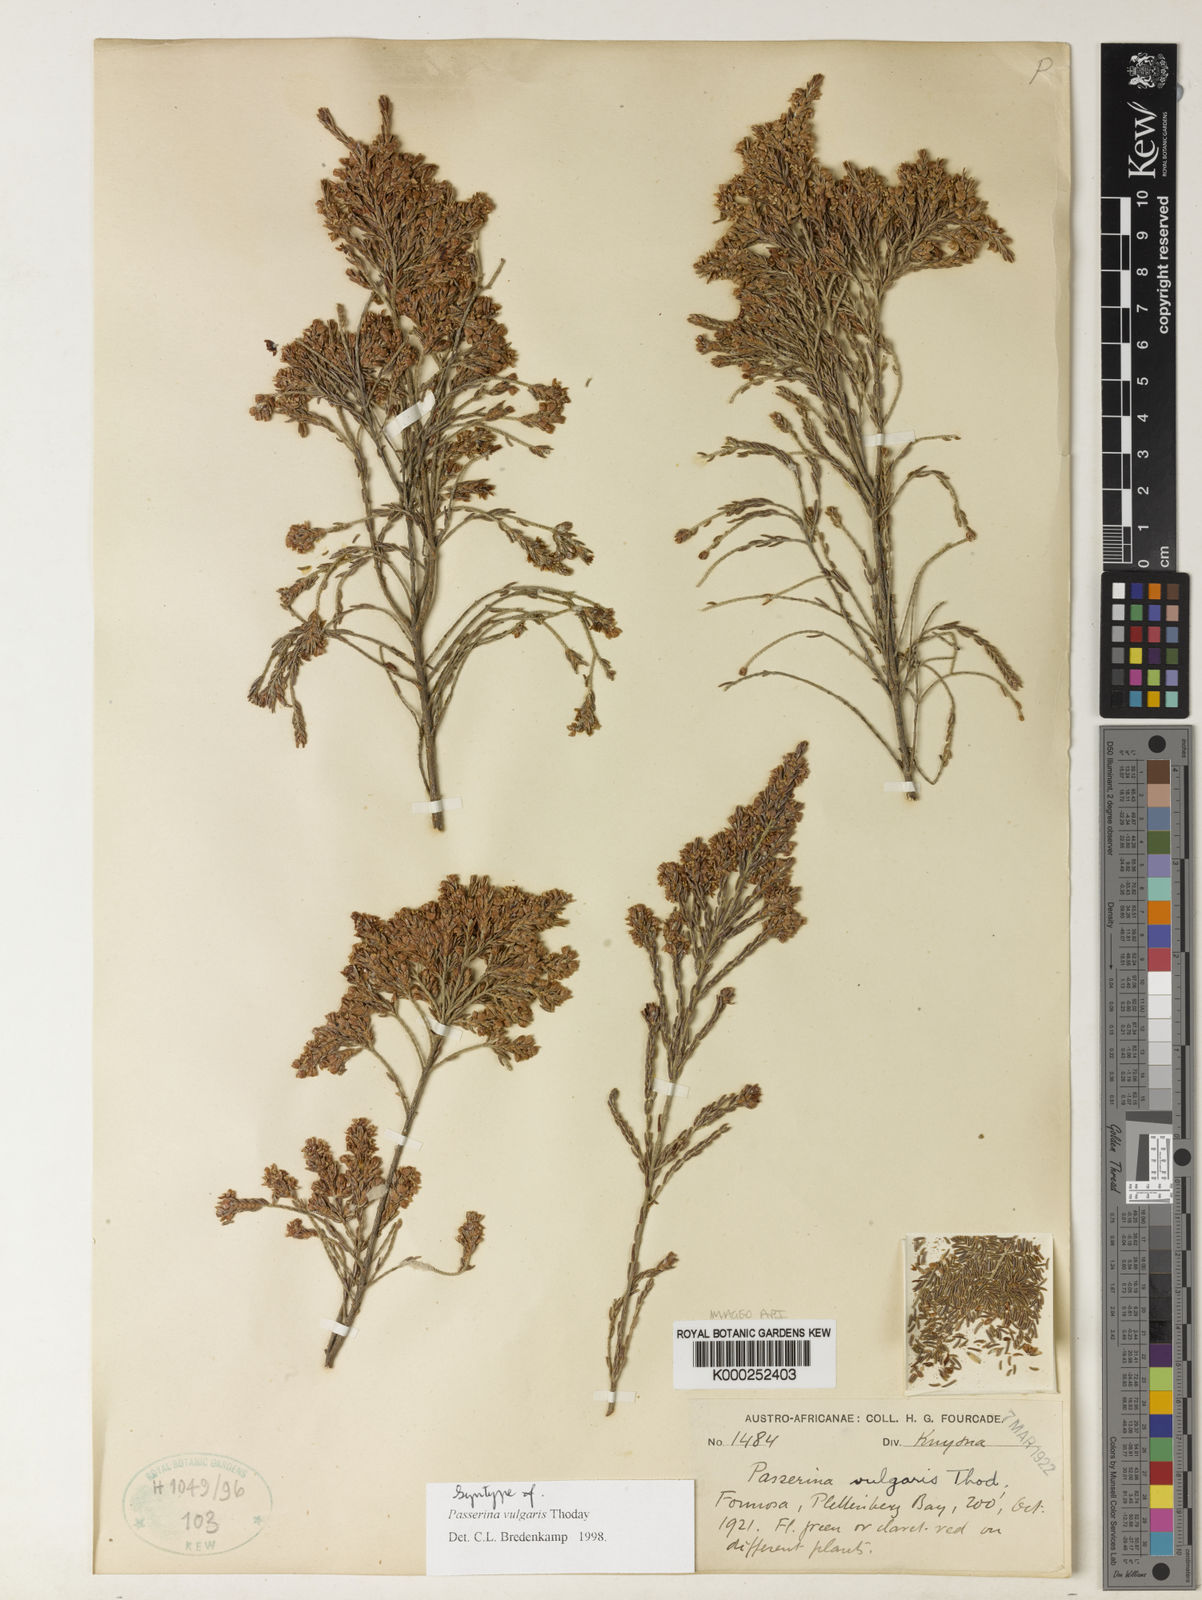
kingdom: Plantae
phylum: Tracheophyta
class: Magnoliopsida
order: Malvales
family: Thymelaeaceae
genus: Passerina
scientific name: Passerina corymbosa
